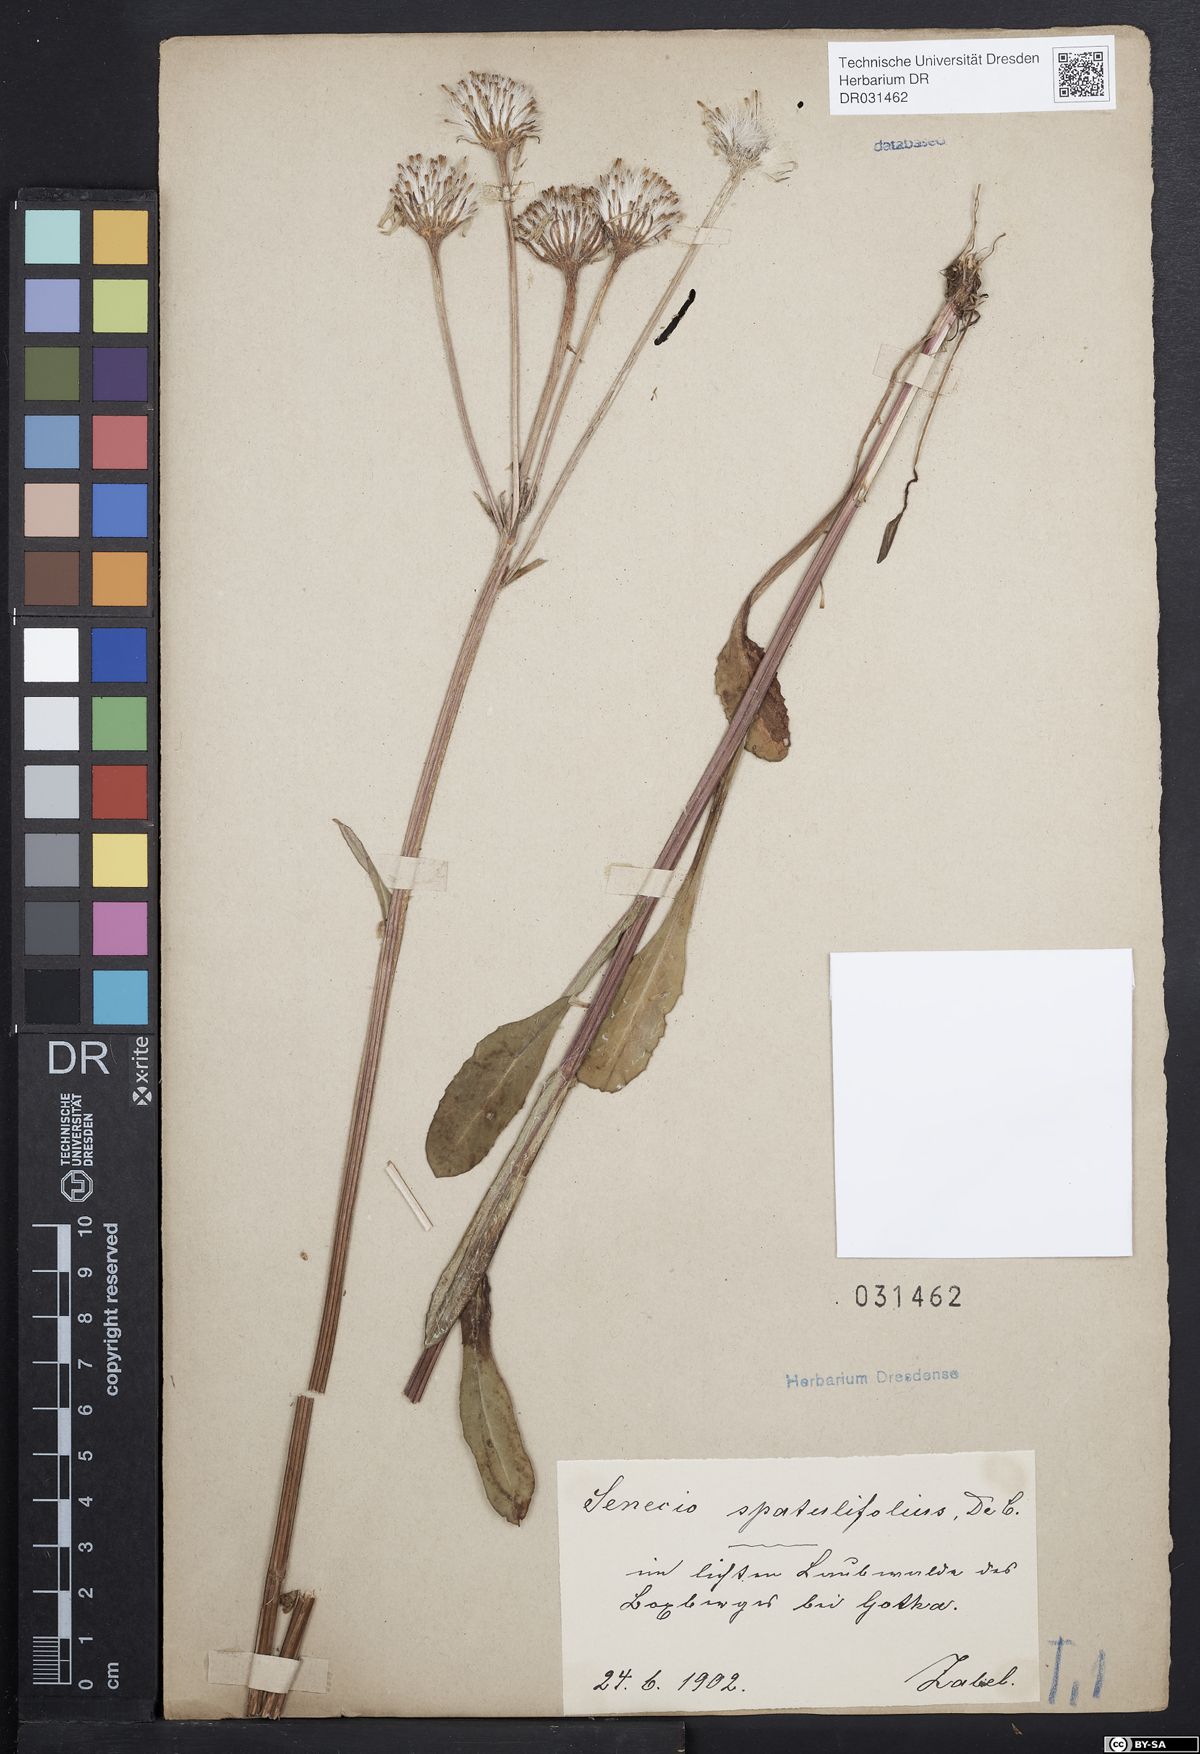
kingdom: Plantae
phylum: Tracheophyta
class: Magnoliopsida
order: Asterales
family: Asteraceae
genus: Tephroseris
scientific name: Tephroseris helenitis
